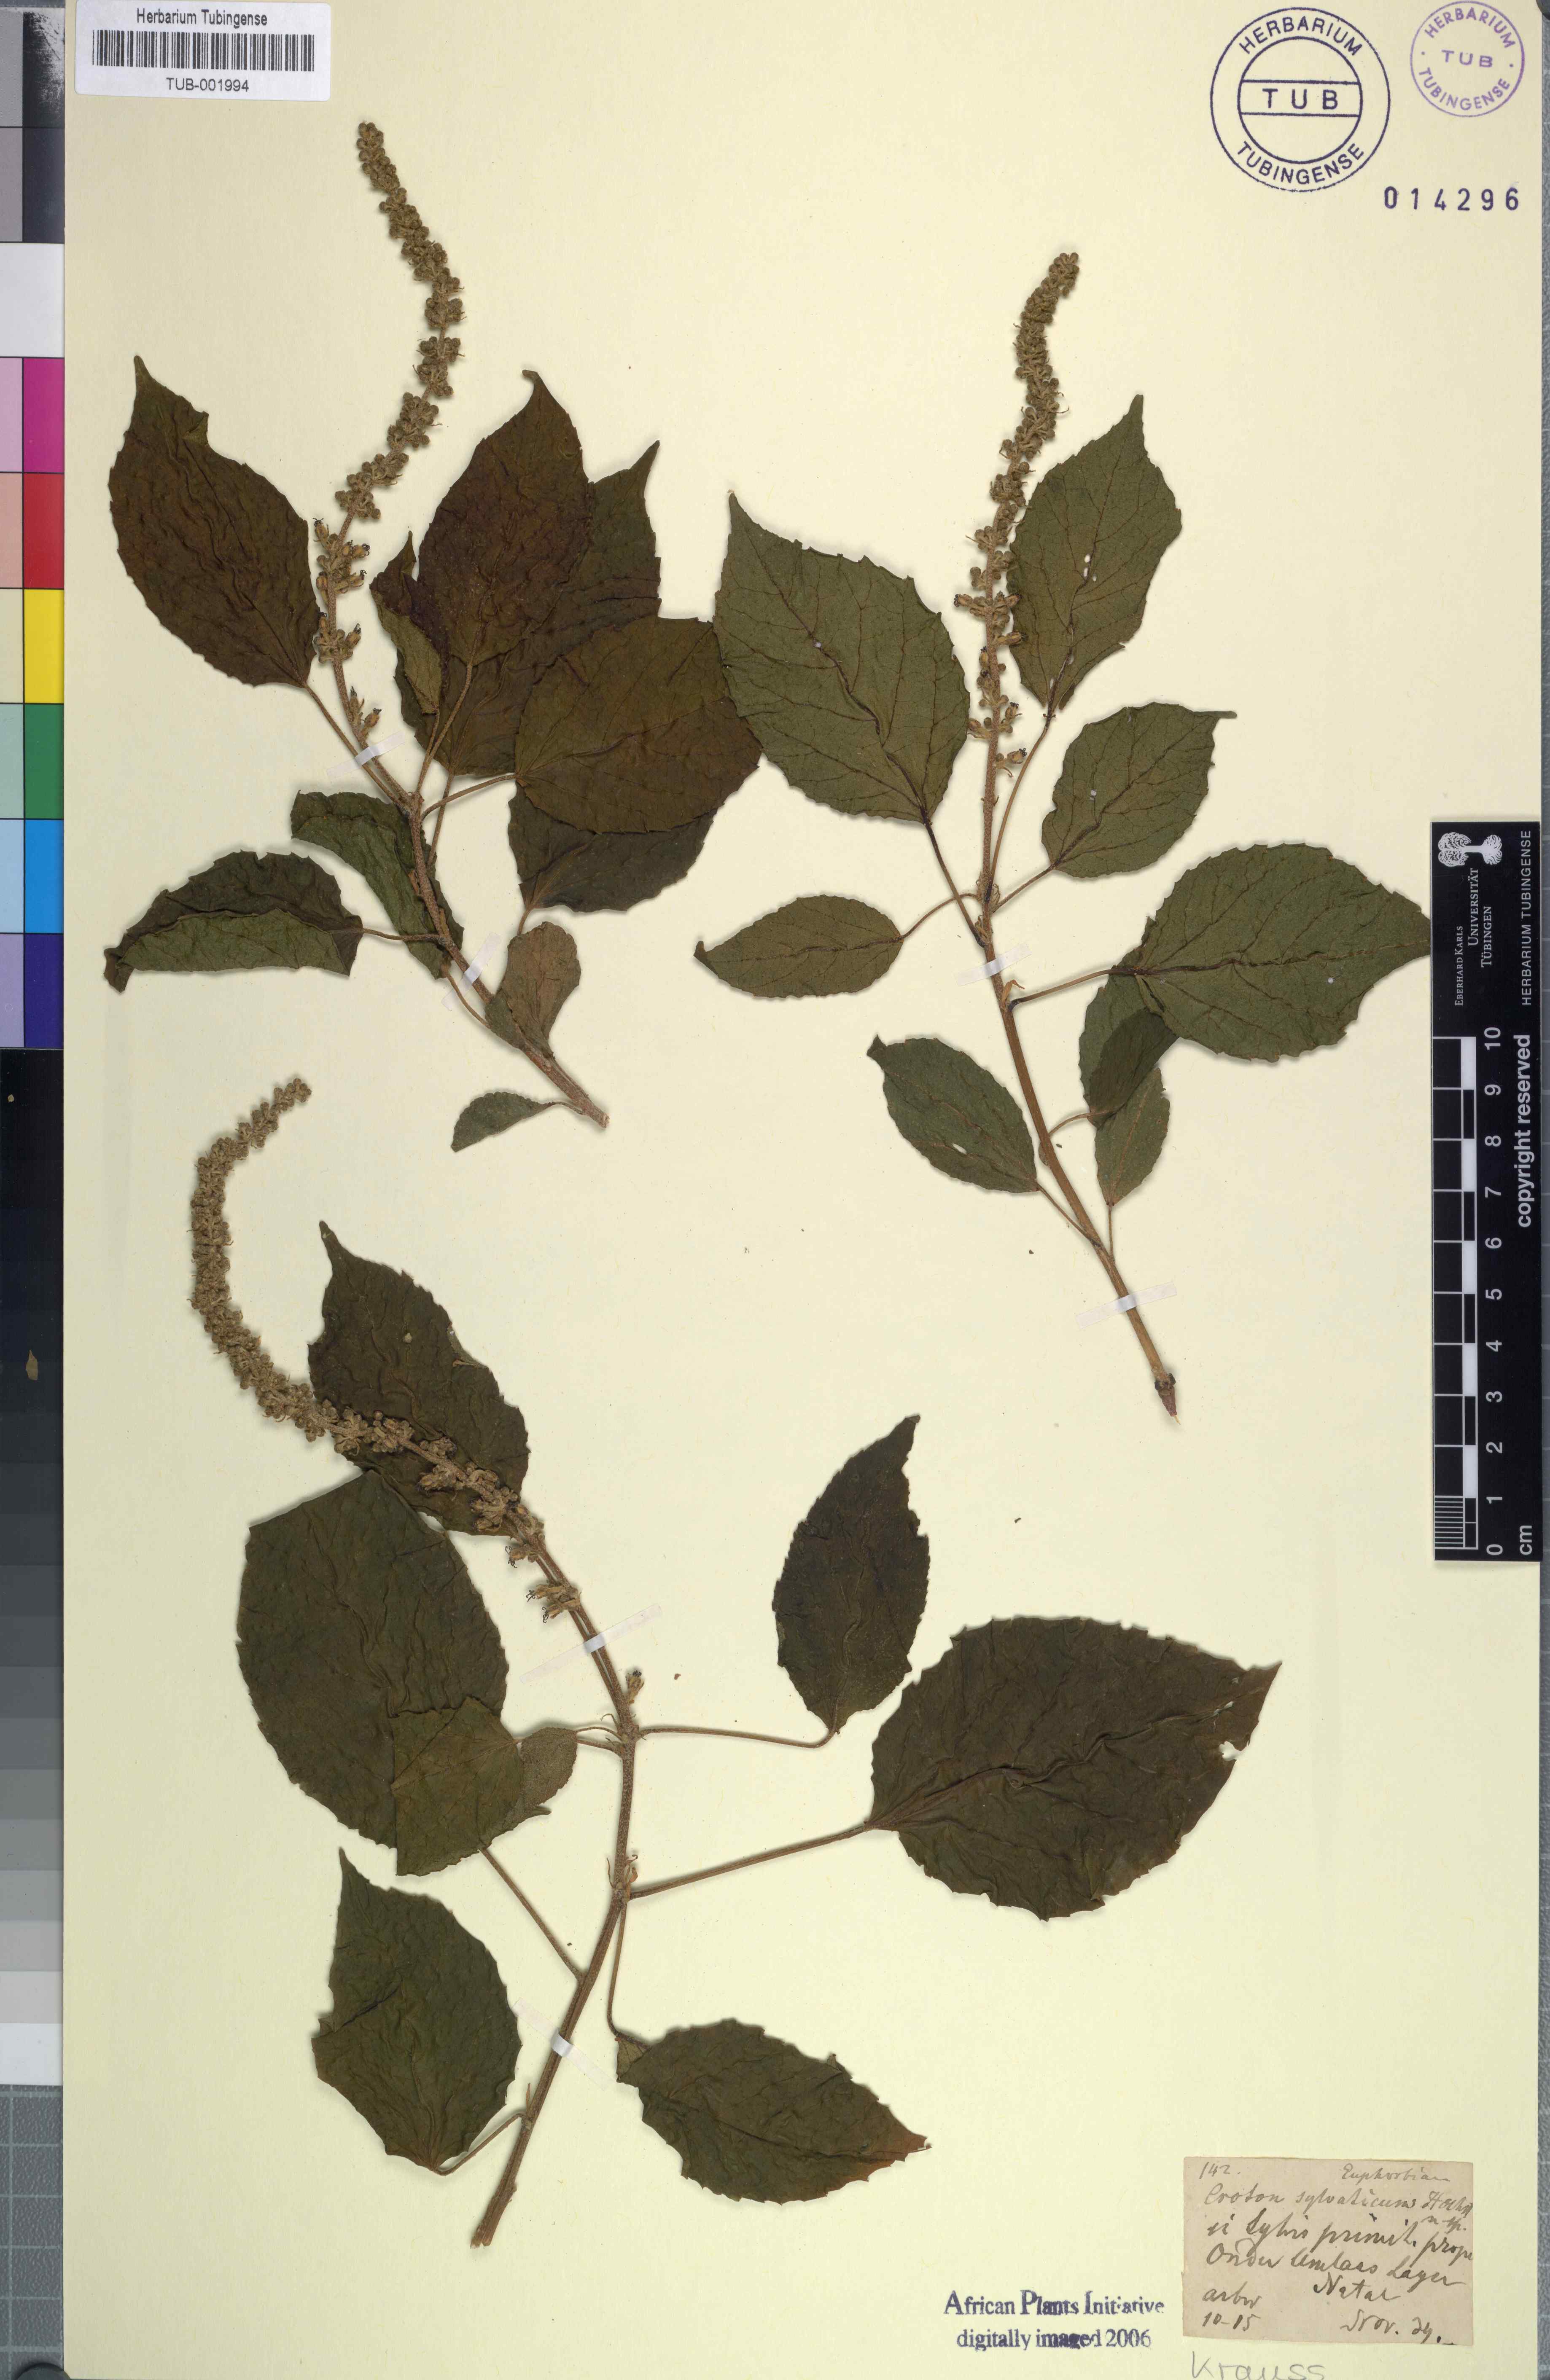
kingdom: Plantae
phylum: Tracheophyta
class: Magnoliopsida
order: Malpighiales
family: Euphorbiaceae
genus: Croton
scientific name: Croton sylvaticus
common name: Forest croton
